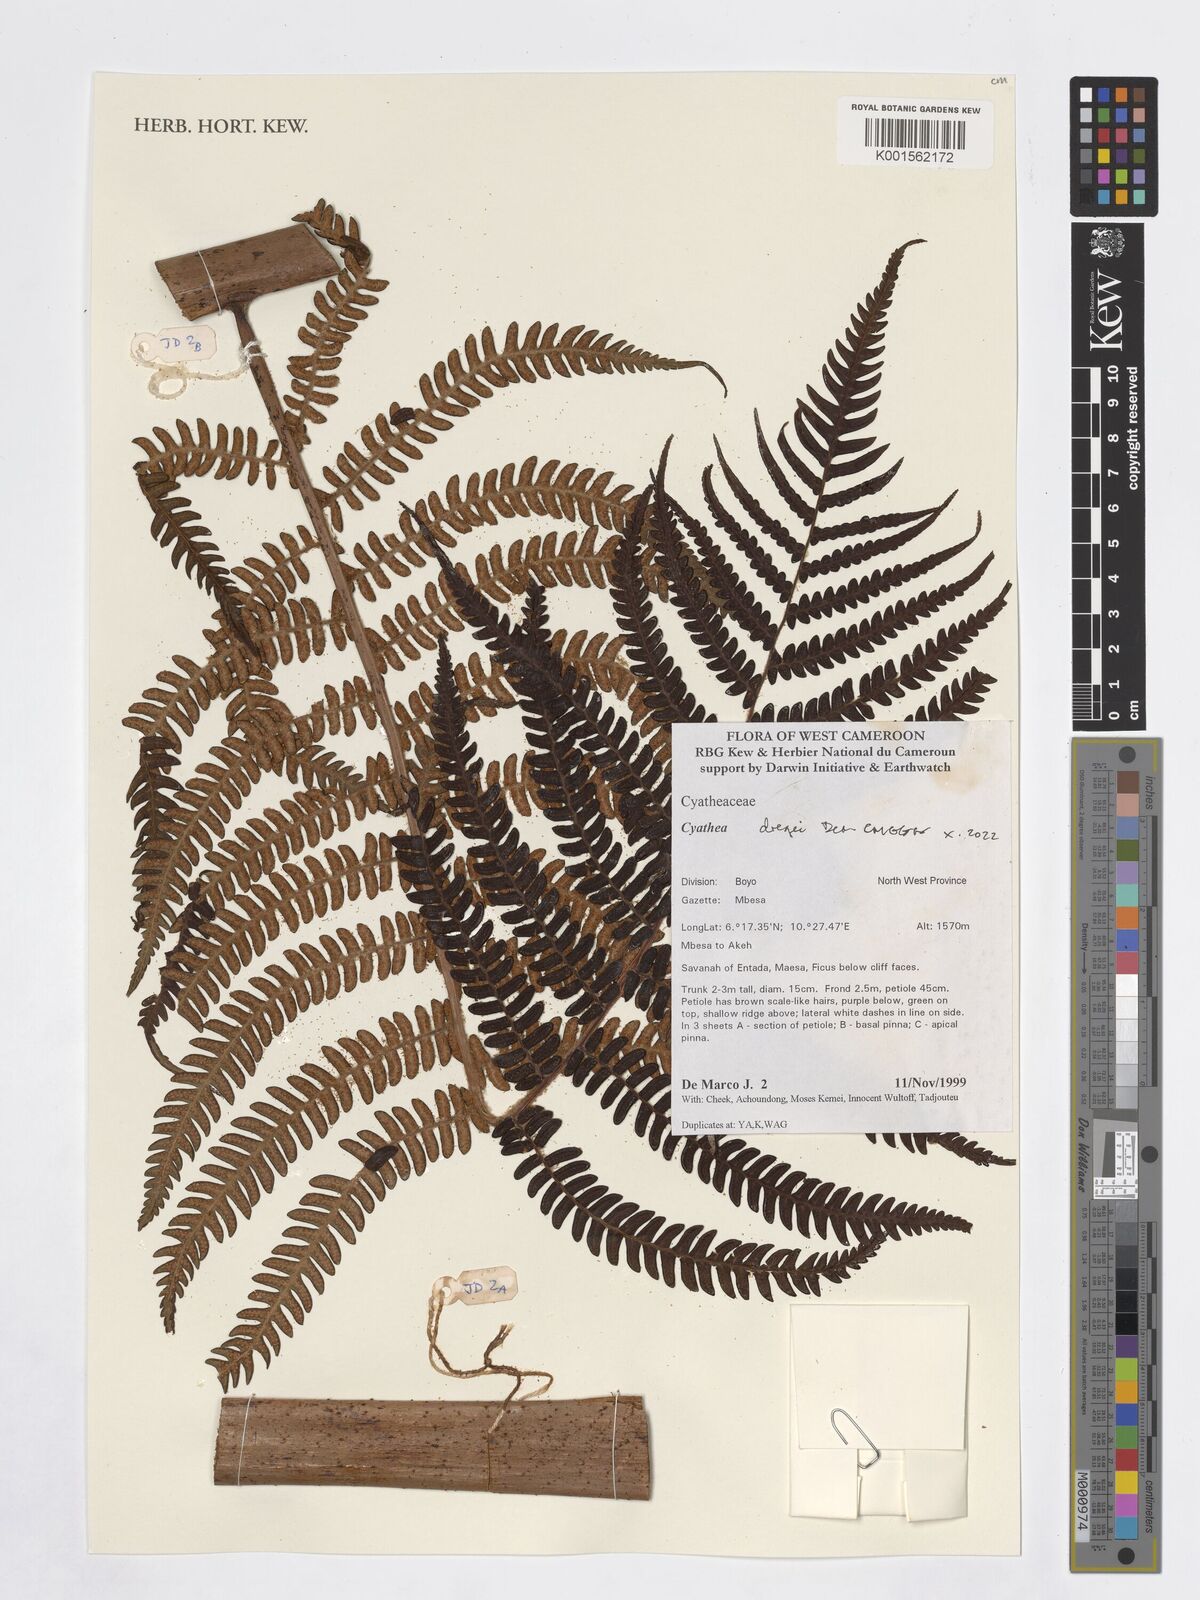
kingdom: Plantae
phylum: Tracheophyta
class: Polypodiopsida
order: Cyatheales
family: Cyatheaceae
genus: Alsophila
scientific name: Alsophila dregei
